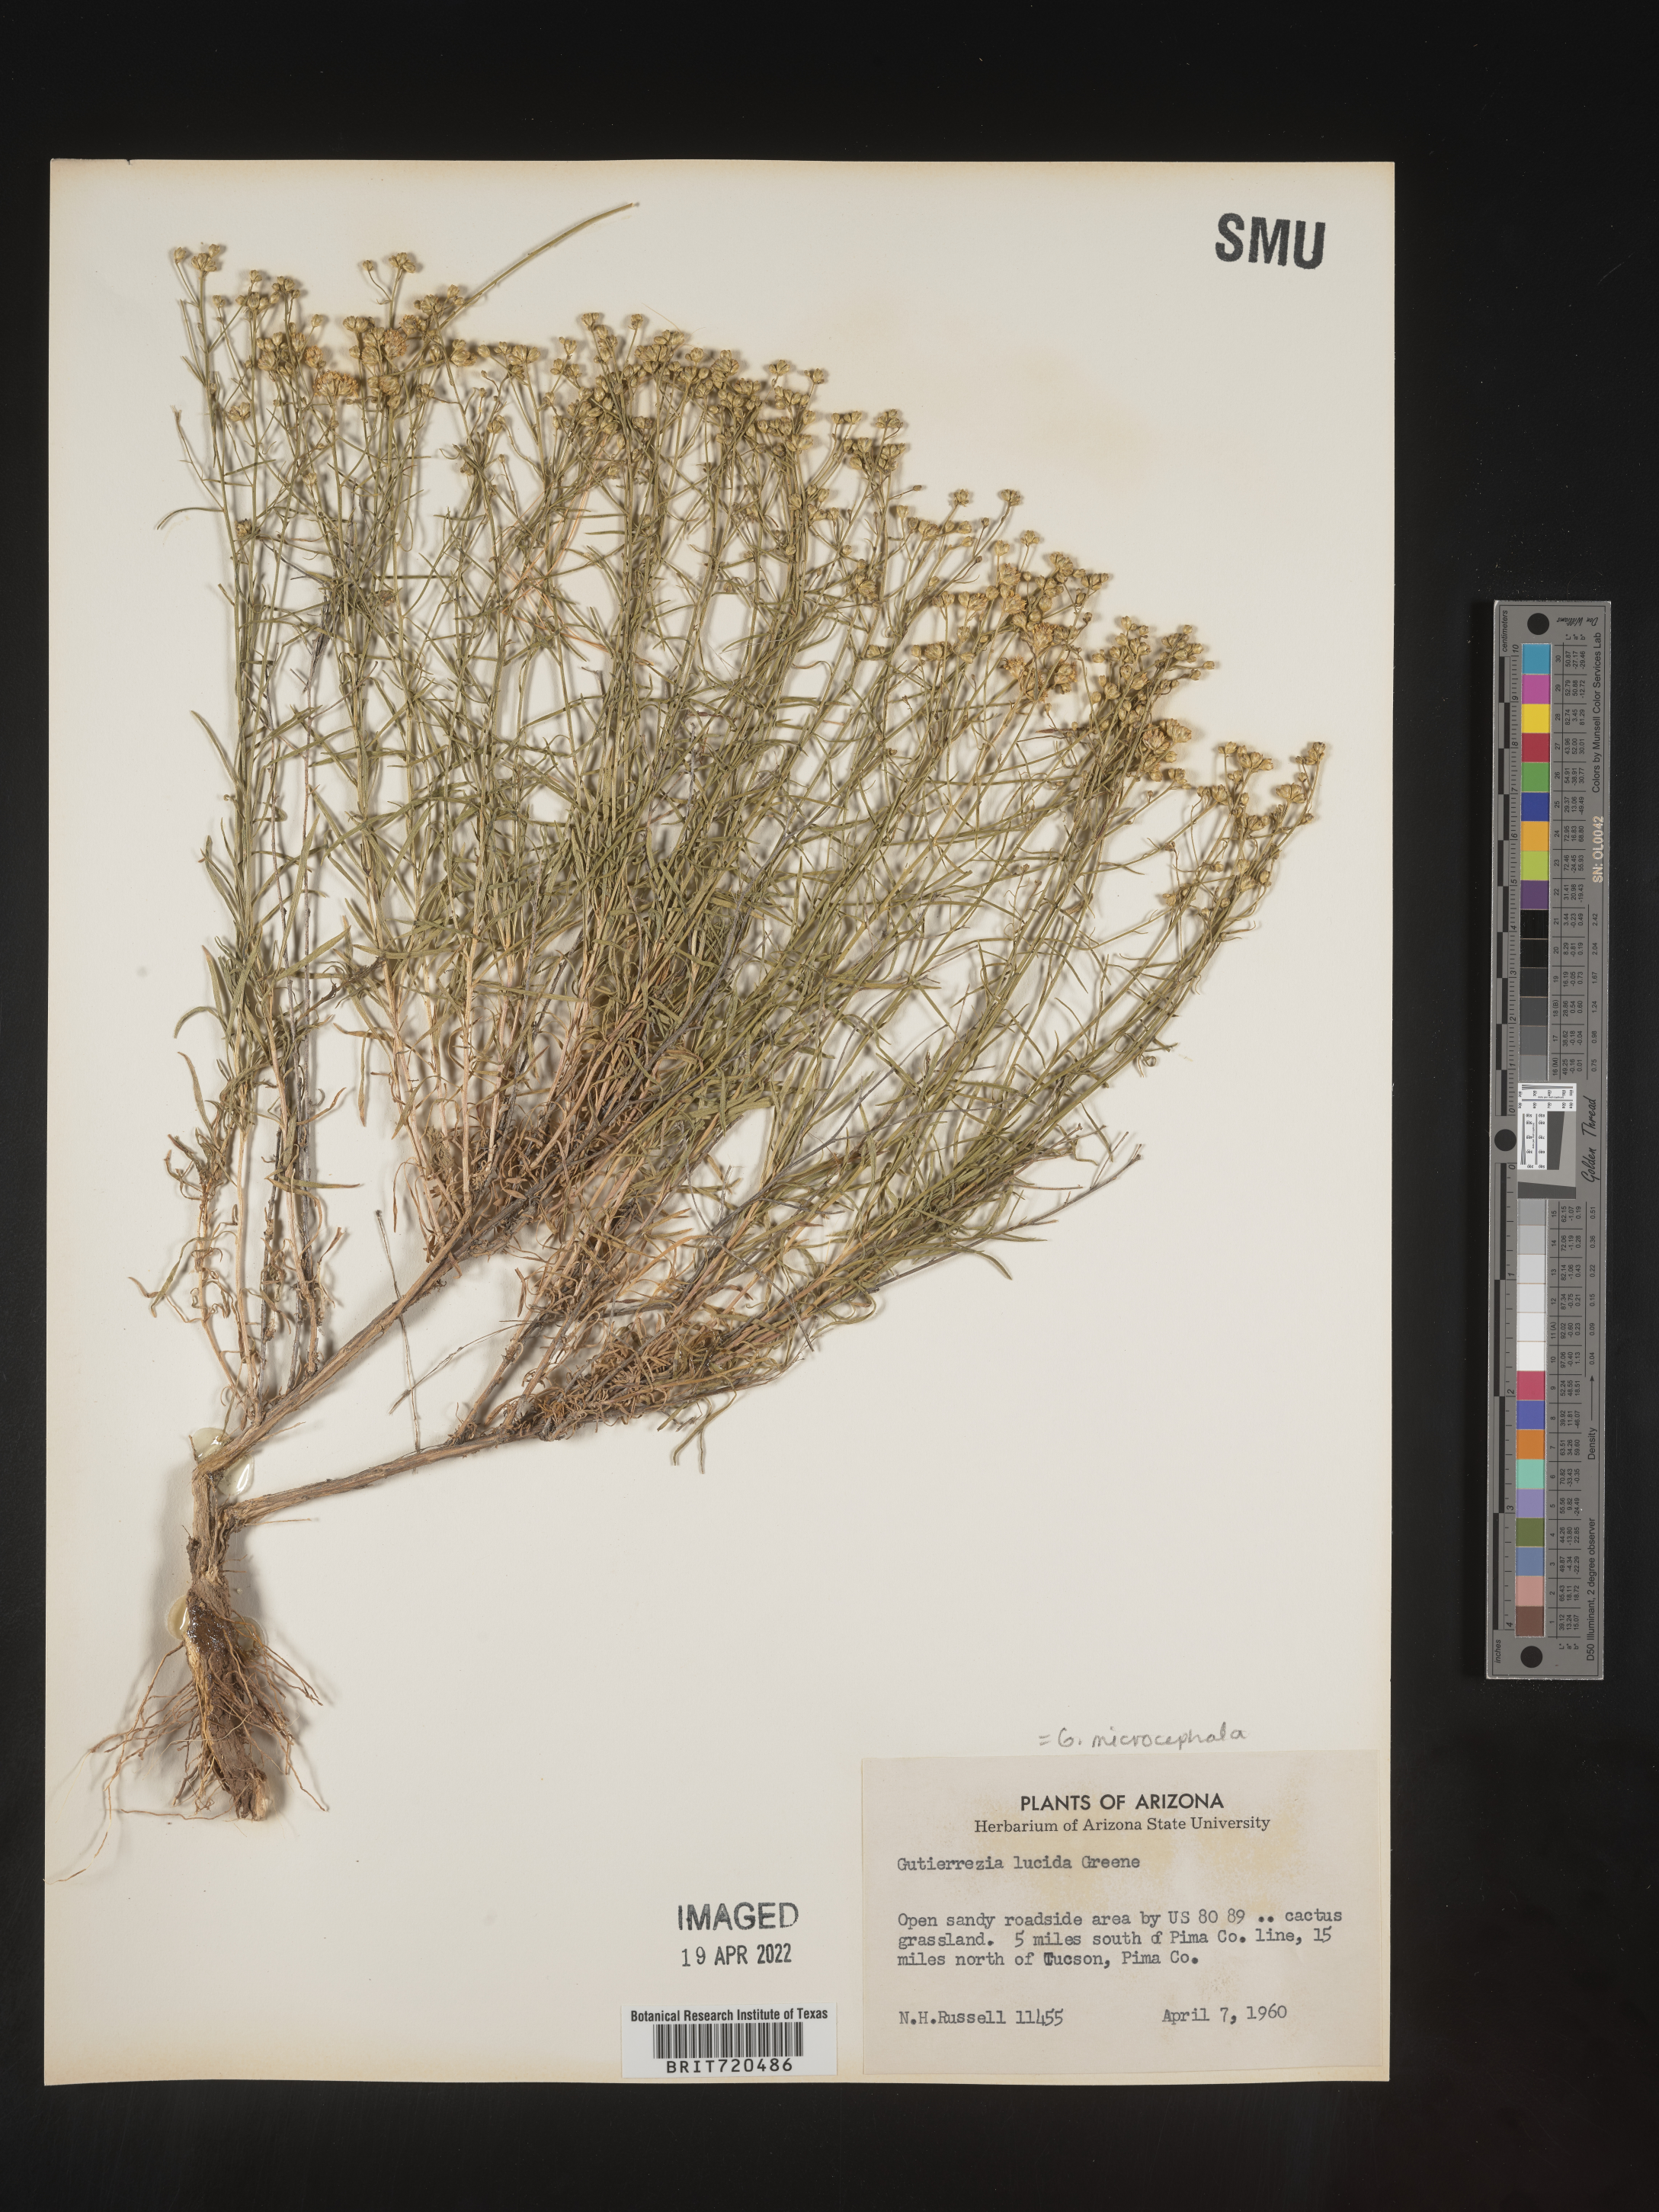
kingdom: Plantae
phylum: Tracheophyta
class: Magnoliopsida
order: Asterales
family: Asteraceae
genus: Gutierrezia
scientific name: Gutierrezia microcephala
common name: Thread snakeweed
